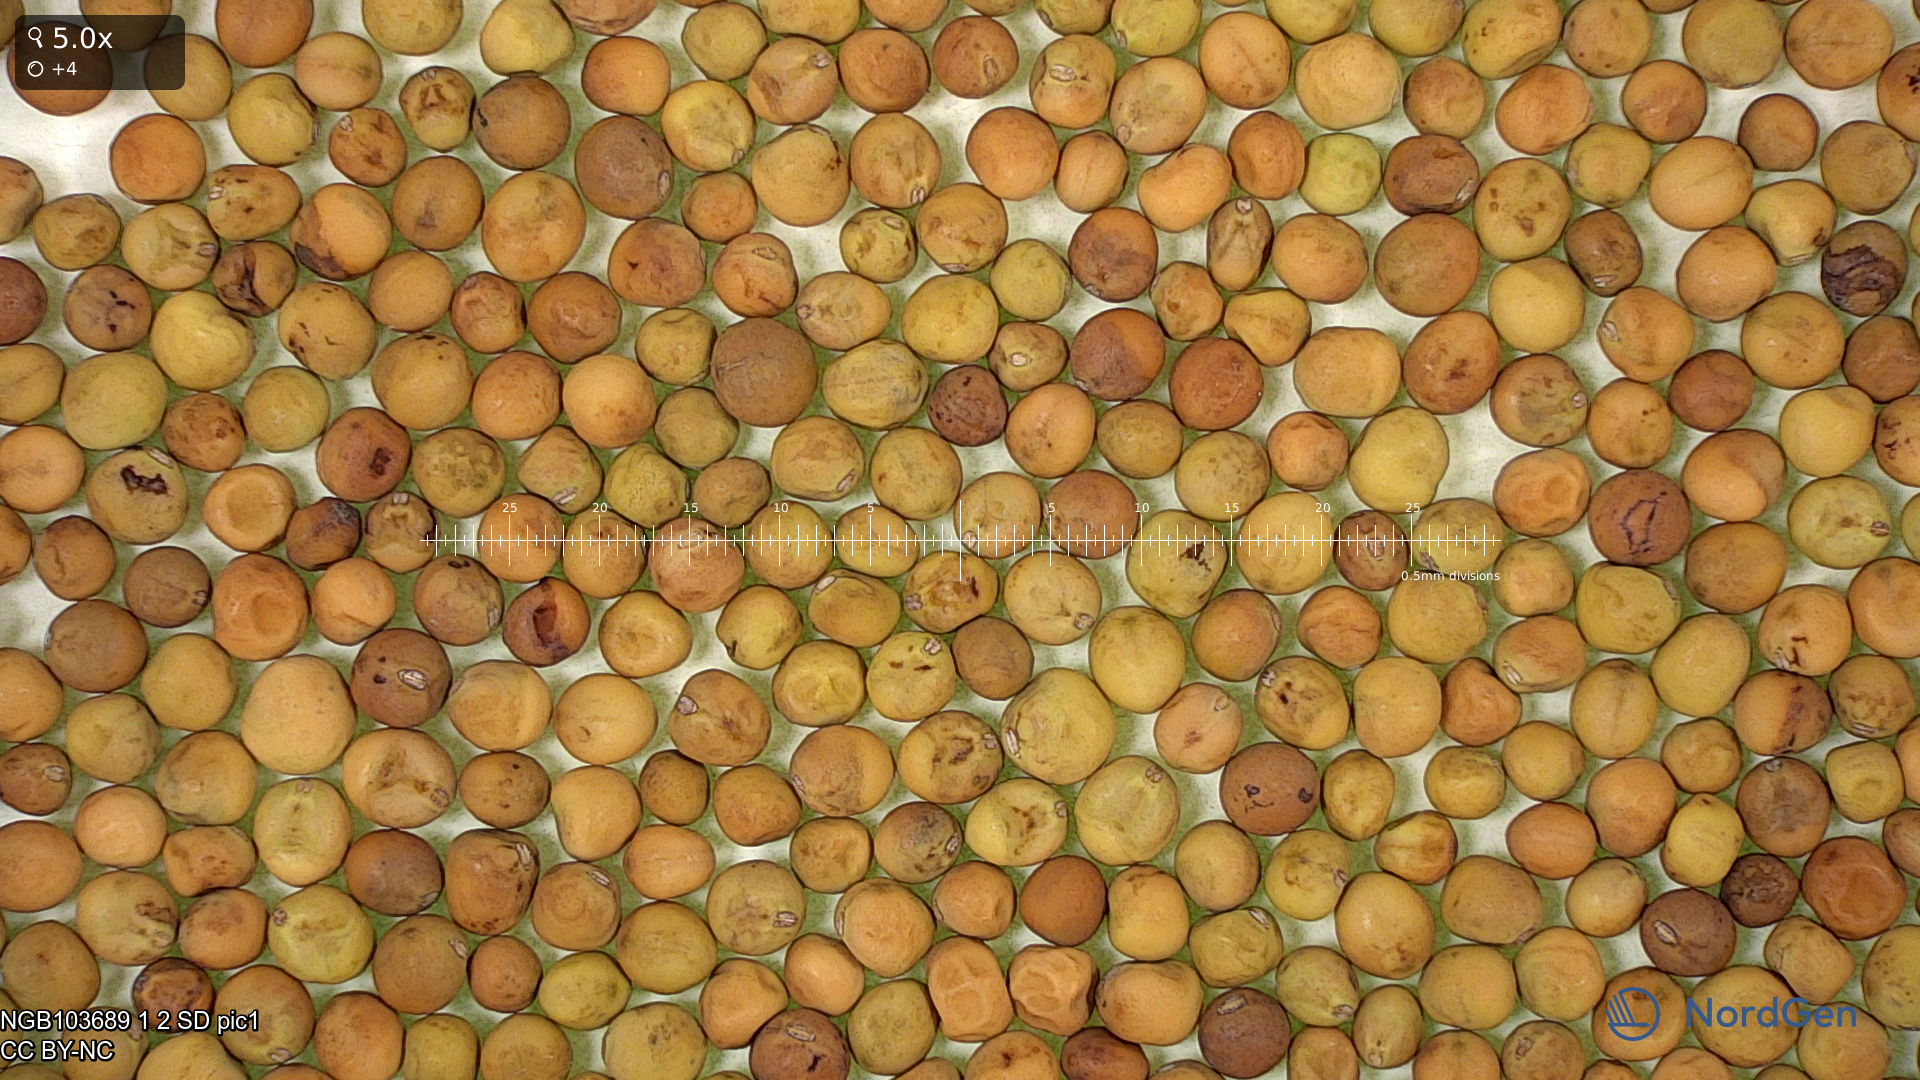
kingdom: Plantae
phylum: Tracheophyta
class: Magnoliopsida
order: Fabales
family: Fabaceae
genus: Lathyrus
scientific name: Lathyrus oleraceus
